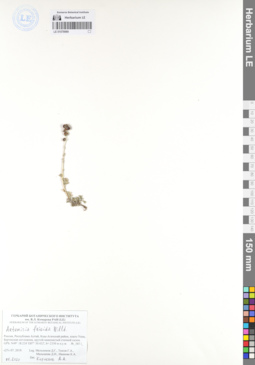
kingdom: Plantae
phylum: Tracheophyta
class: Magnoliopsida
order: Asterales
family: Asteraceae
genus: Artemisia
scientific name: Artemisia frigida
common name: Prairie sagewort
